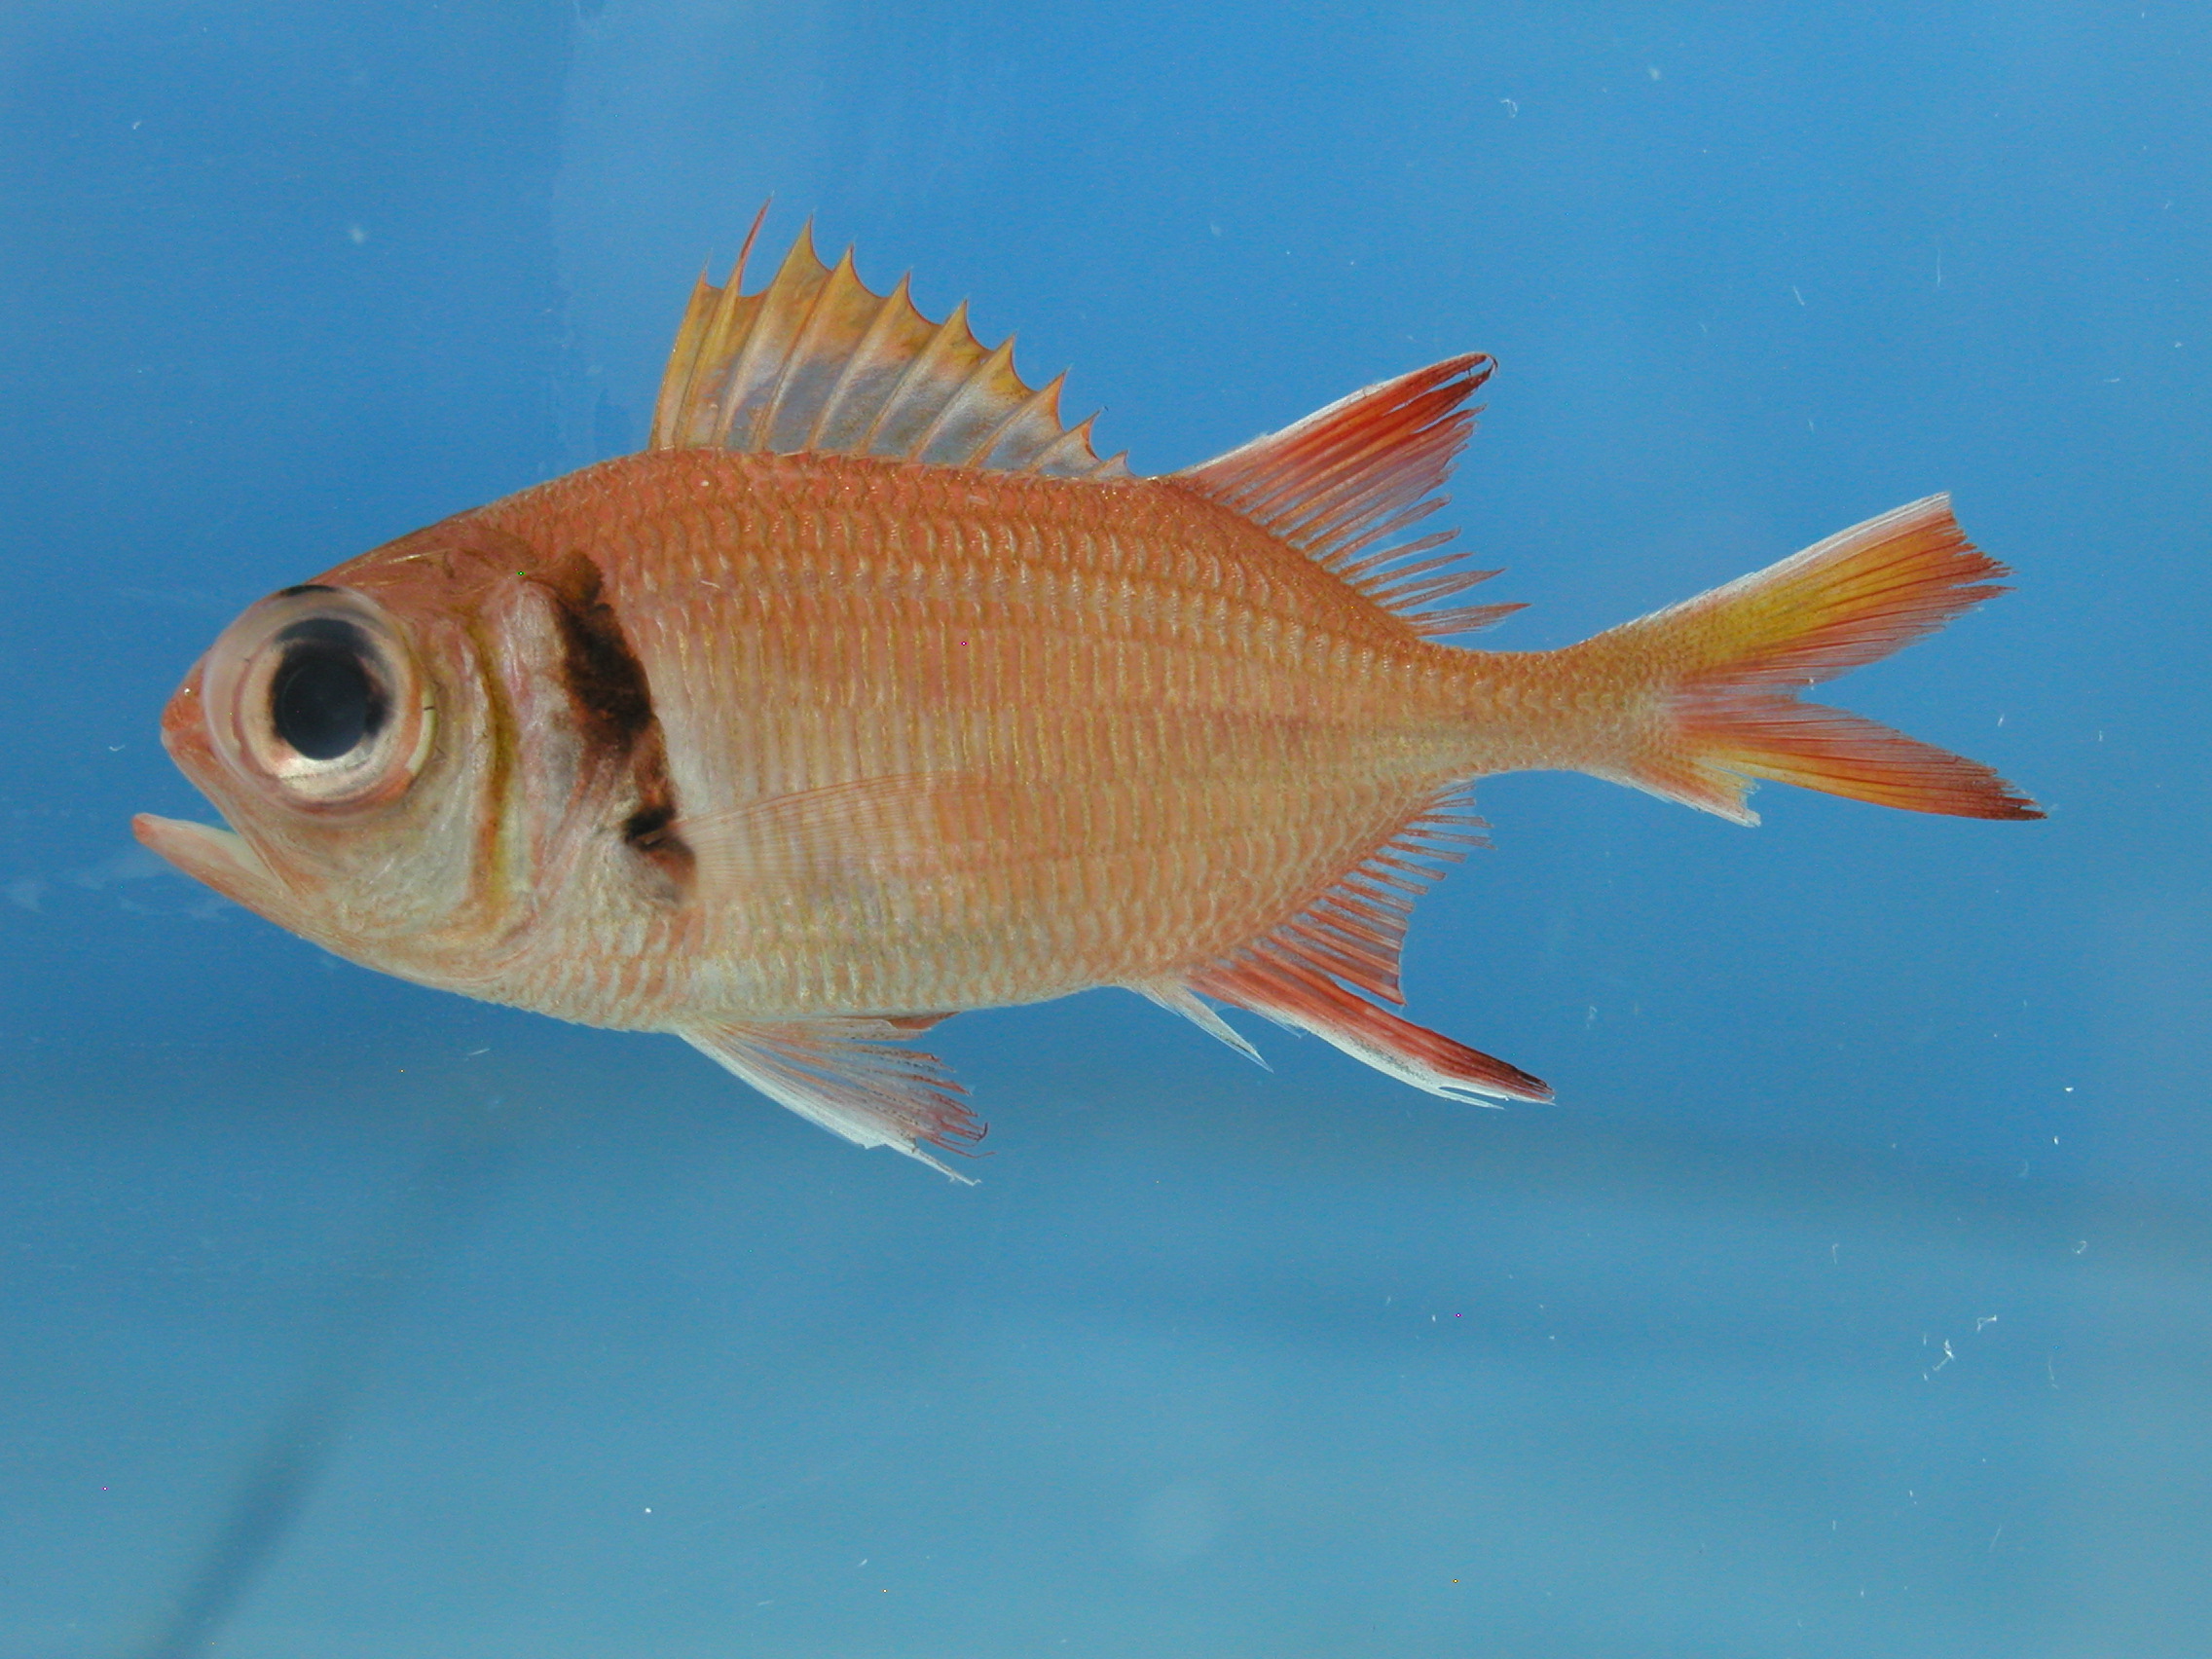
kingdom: Animalia
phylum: Chordata
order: Beryciformes
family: Holocentridae
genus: Myripristis
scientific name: Myripristis kuntee
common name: Epaulette soldierfish
